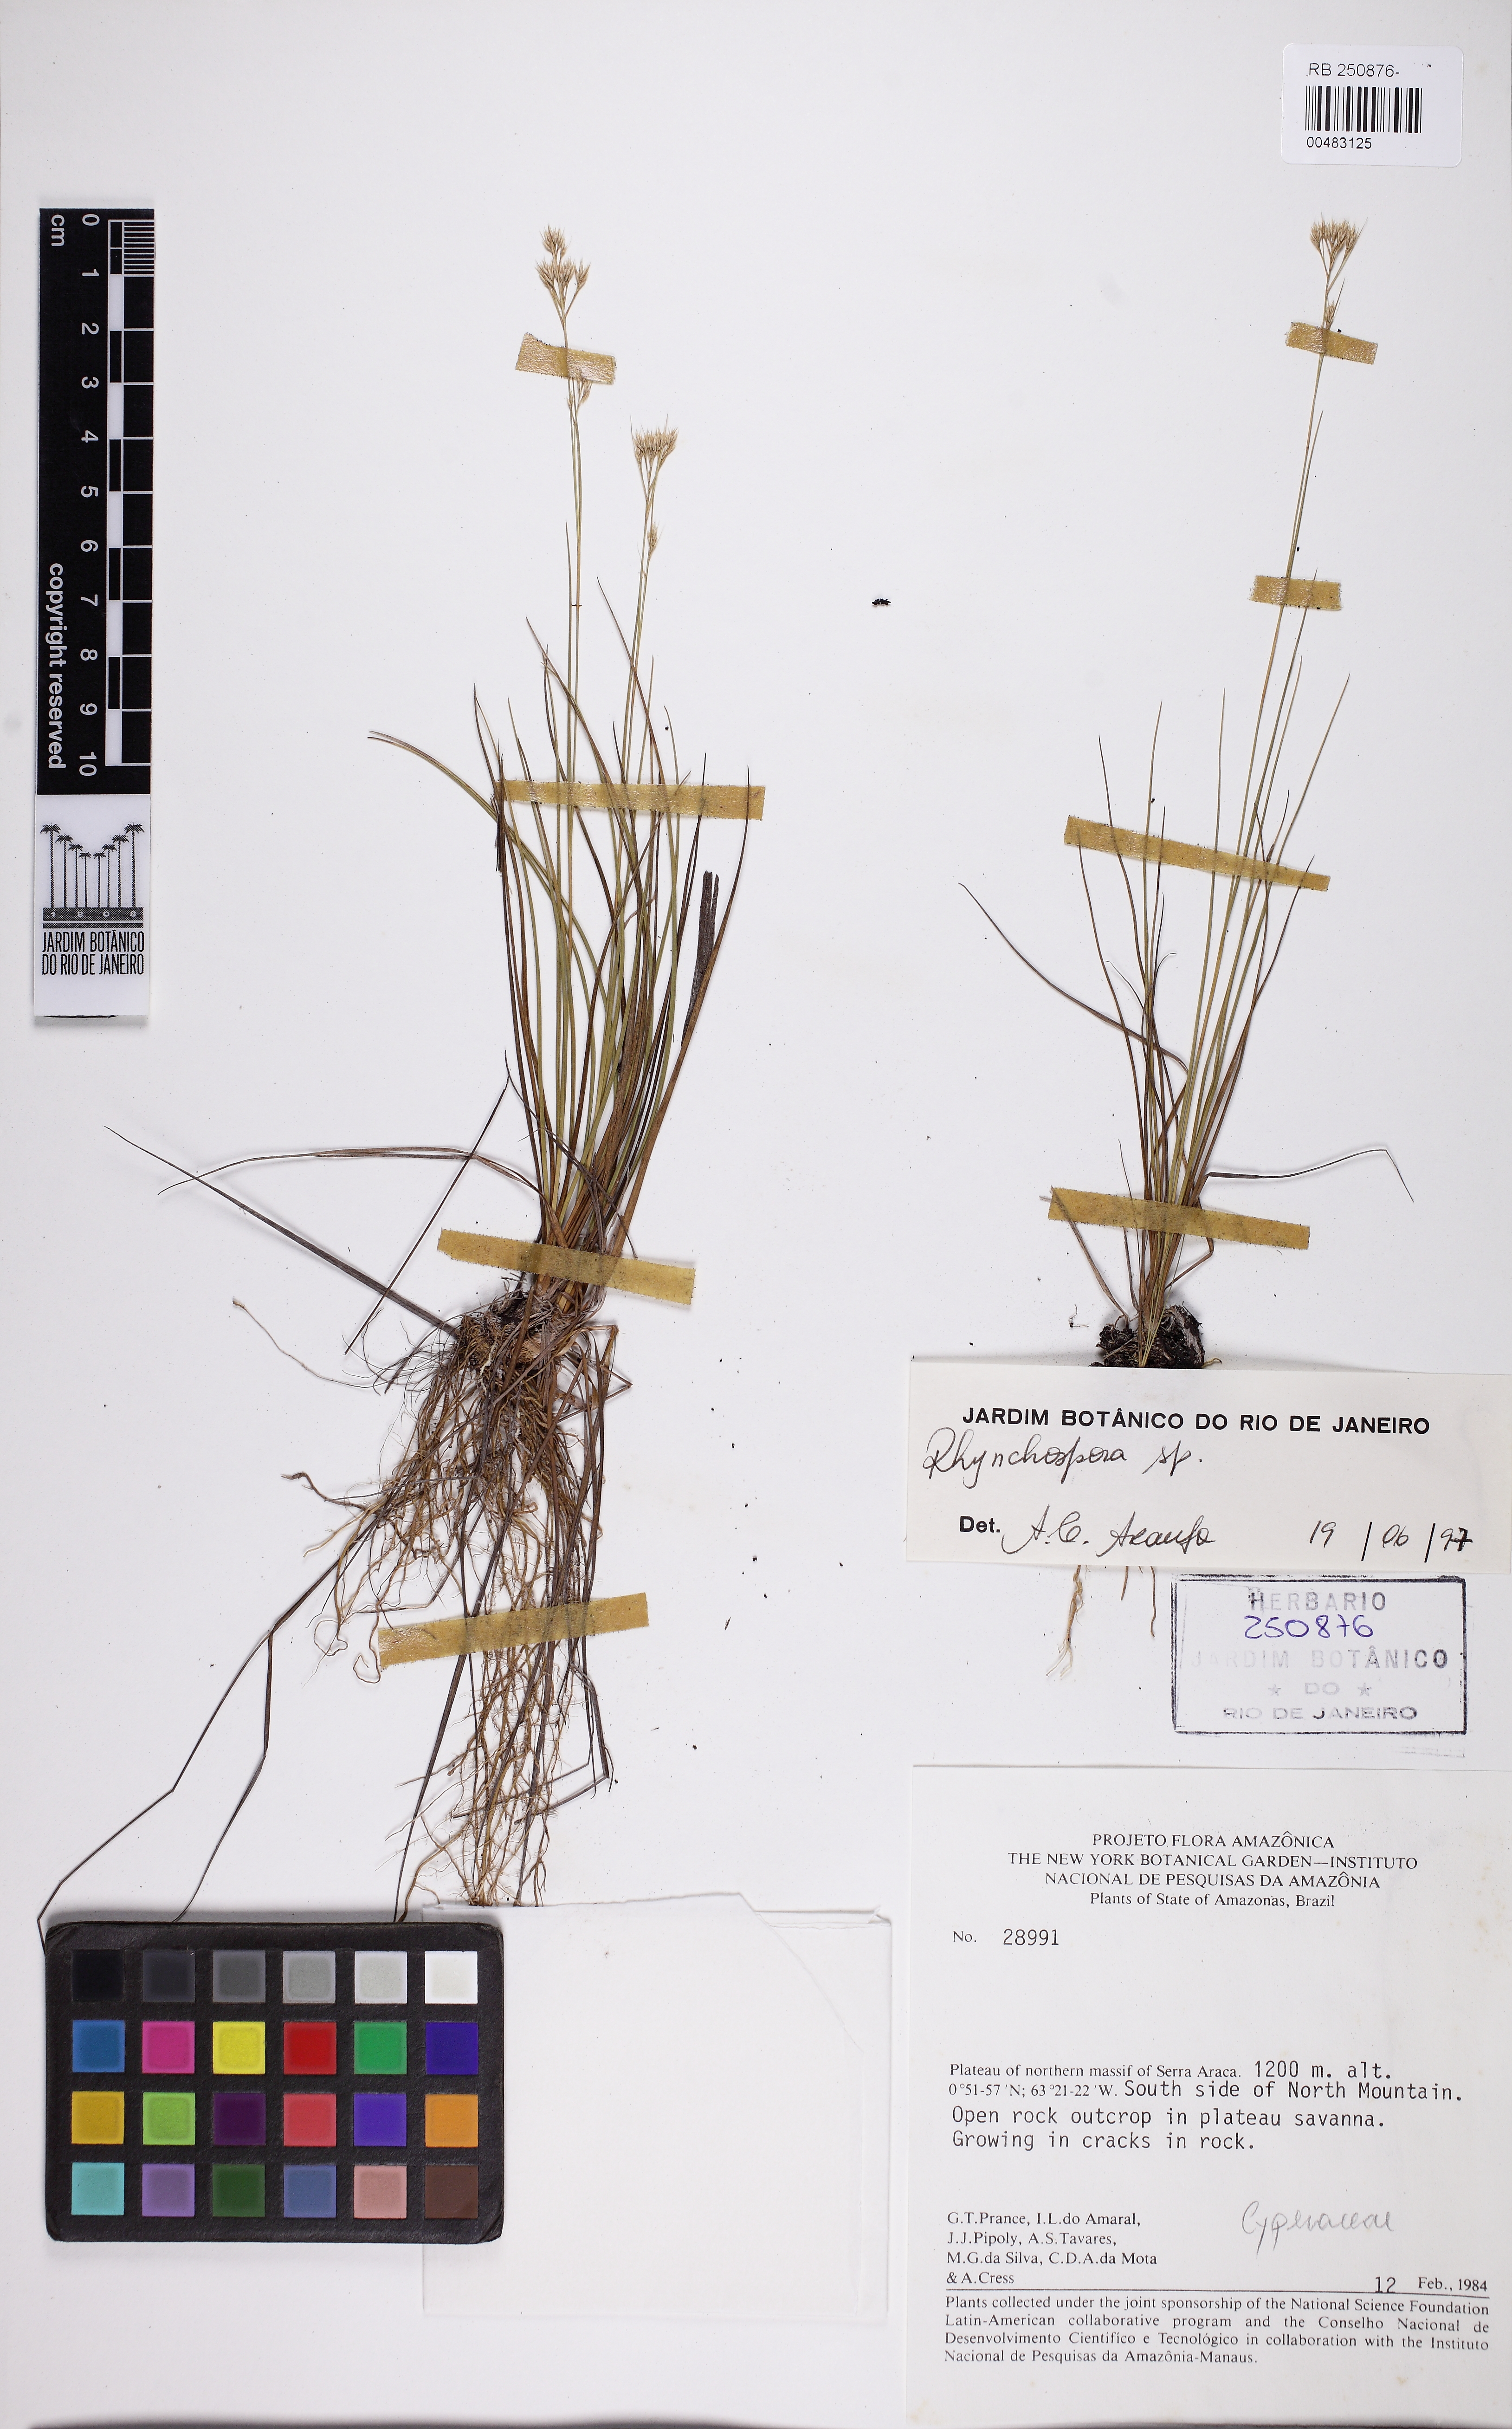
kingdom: Plantae
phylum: Tracheophyta
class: Liliopsida
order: Poales
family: Cyperaceae
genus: Rhynchospora
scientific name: Rhynchospora alba
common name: White beak-sedge
